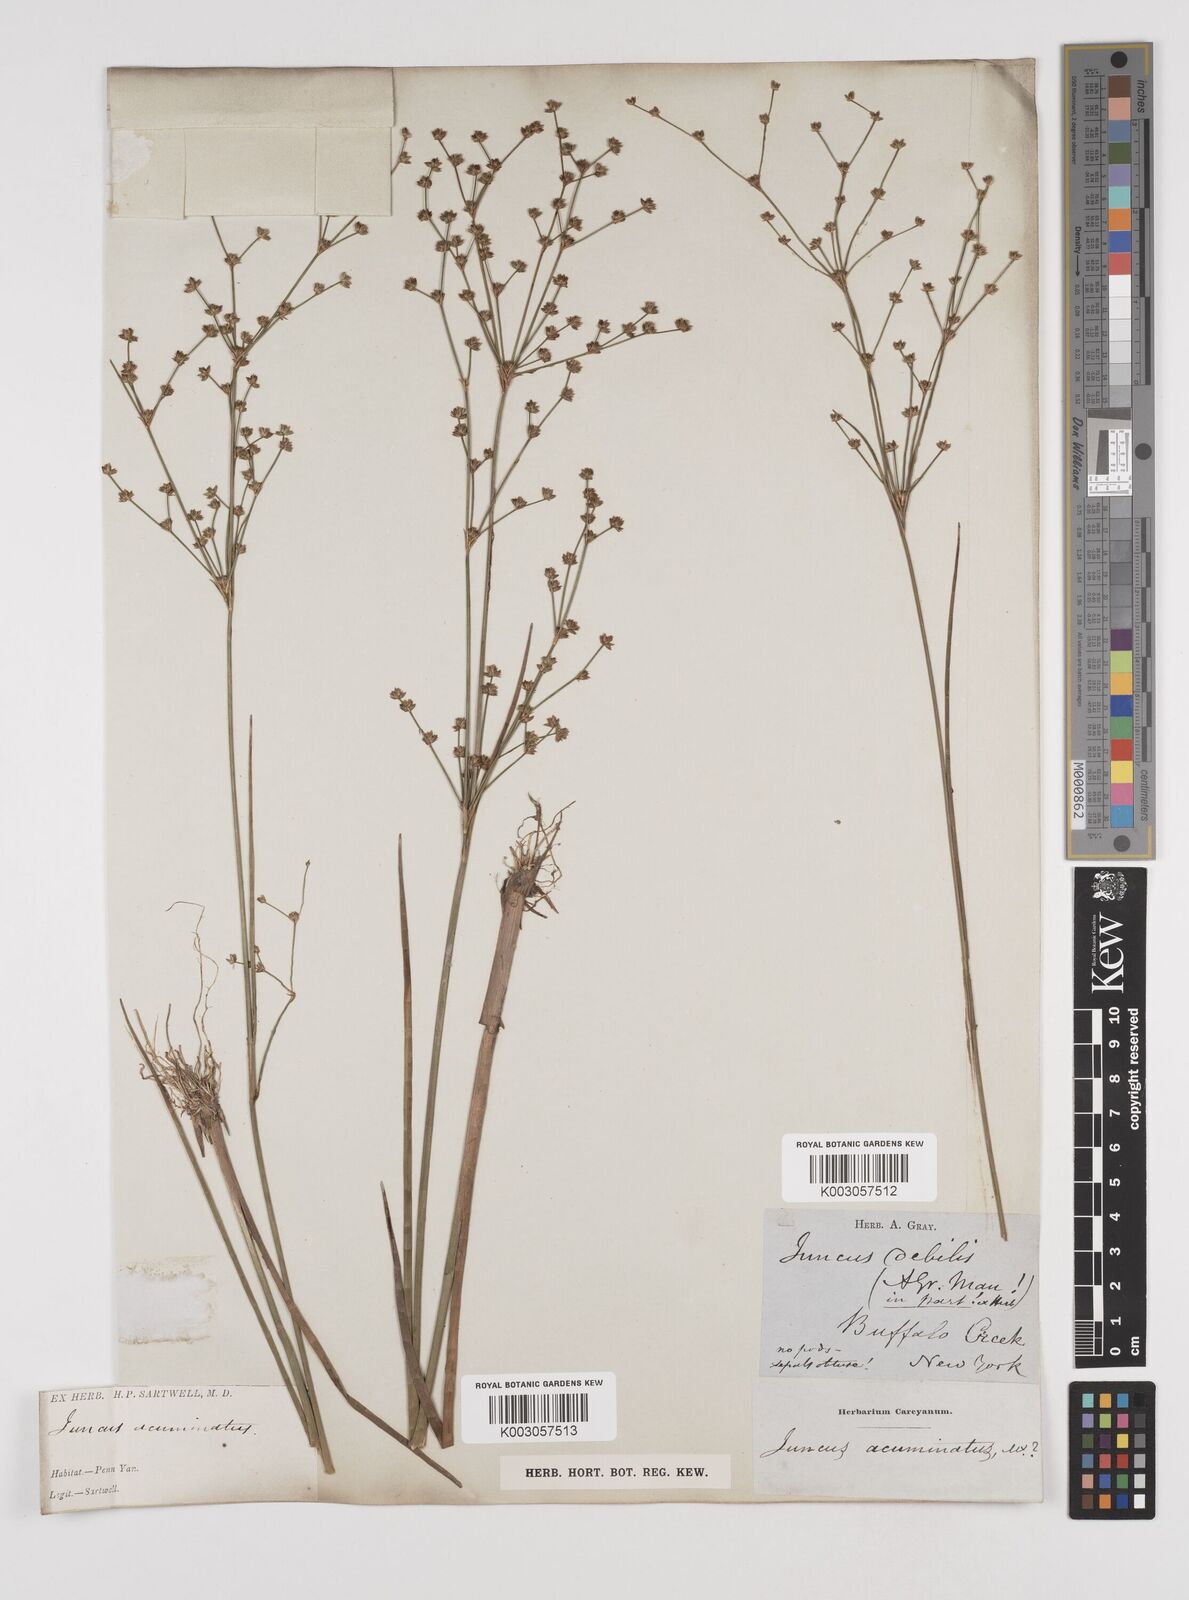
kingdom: Plantae
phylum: Tracheophyta
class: Liliopsida
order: Poales
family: Juncaceae
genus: Juncus
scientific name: Juncus debilis
